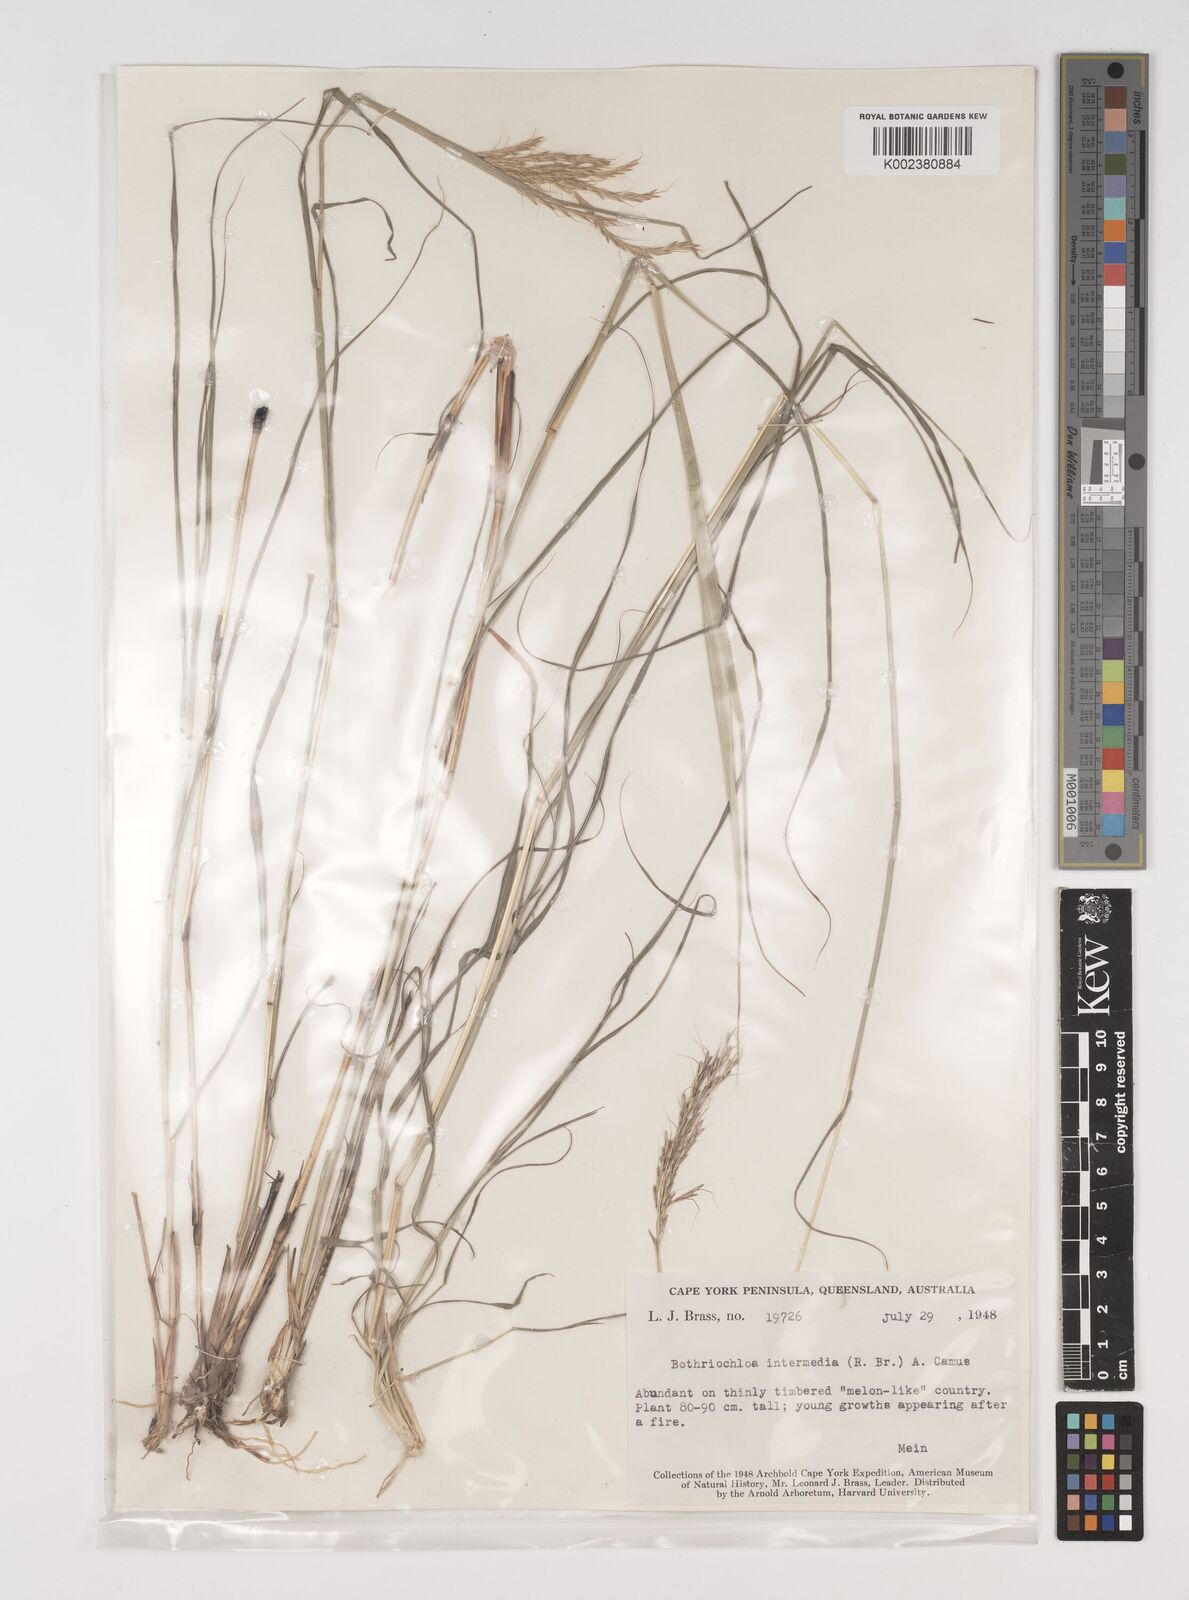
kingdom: Plantae
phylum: Tracheophyta
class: Liliopsida
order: Poales
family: Poaceae
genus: Bothriochloa
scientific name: Bothriochloa bladhii
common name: Caucasian bluestem
